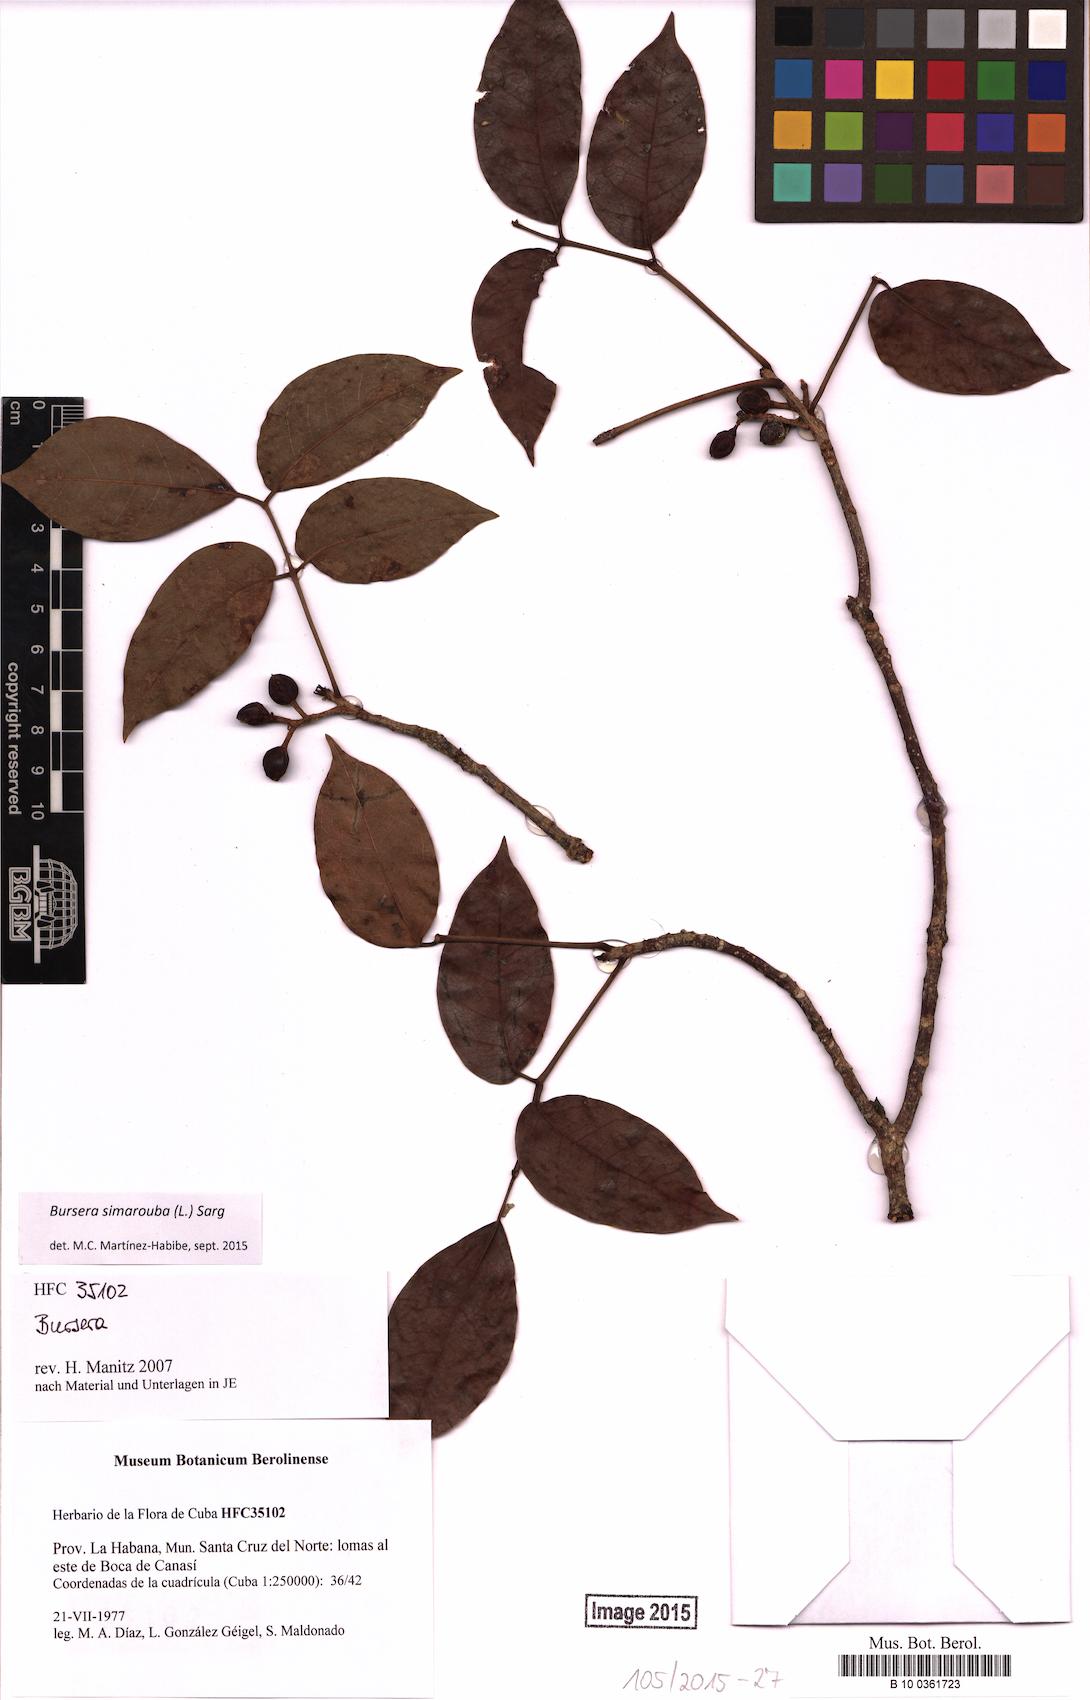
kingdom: Plantae
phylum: Tracheophyta
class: Magnoliopsida
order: Sapindales
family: Burseraceae
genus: Bursera
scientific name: Bursera simaruba
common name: Turpentine tree
